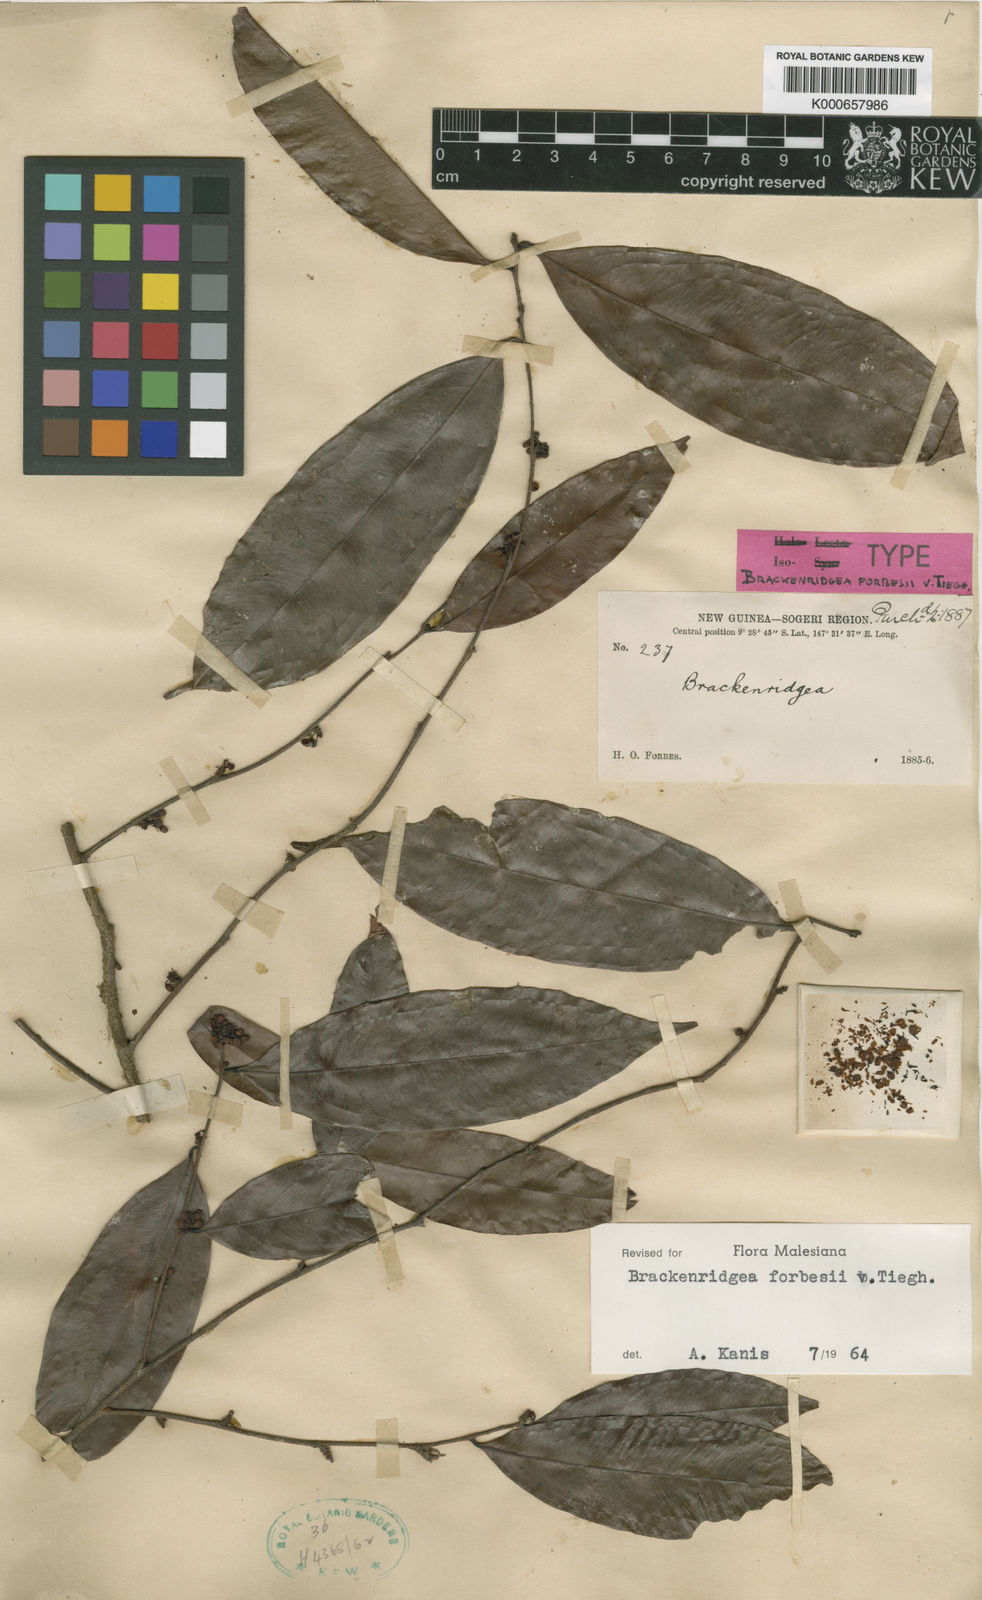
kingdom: Plantae
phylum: Tracheophyta
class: Magnoliopsida
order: Malpighiales
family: Ochnaceae
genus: Brackenridgea
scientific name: Brackenridgea forbesii
